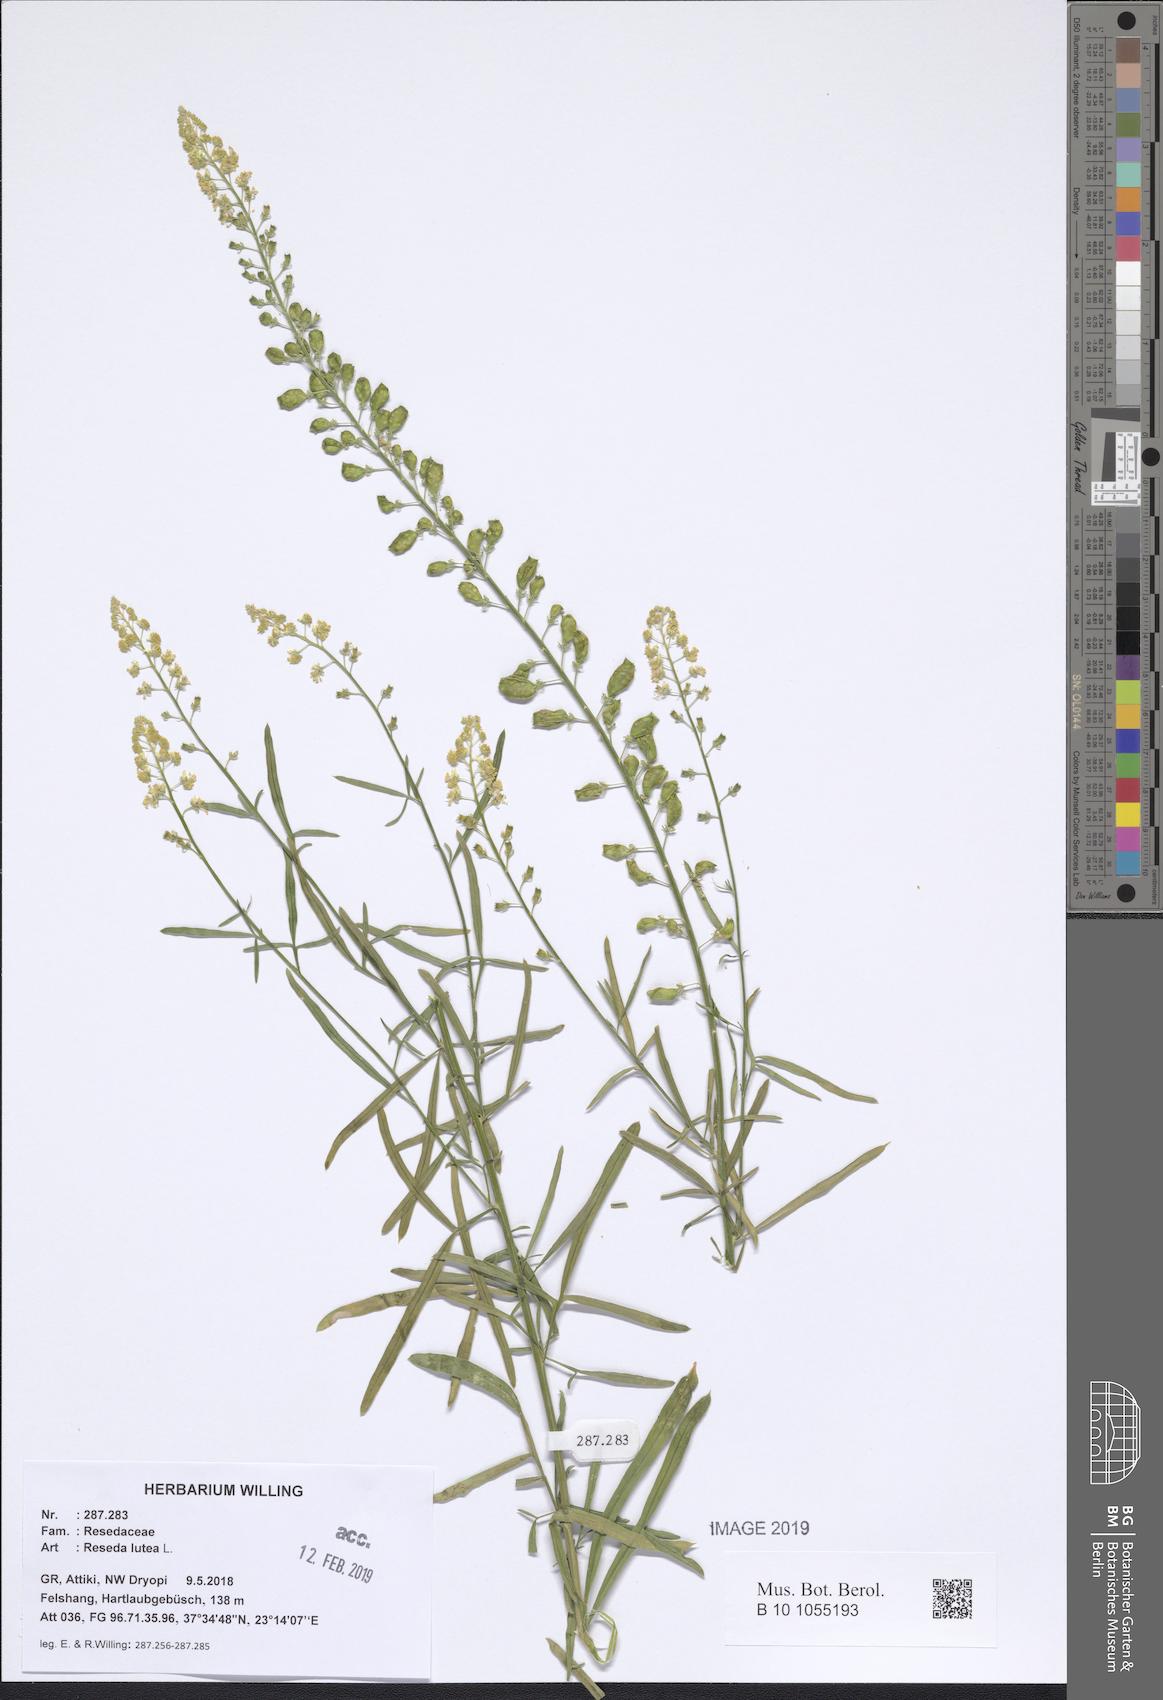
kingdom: Plantae
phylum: Tracheophyta
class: Magnoliopsida
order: Brassicales
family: Resedaceae
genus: Reseda
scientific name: Reseda lutea
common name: Wild mignonette
